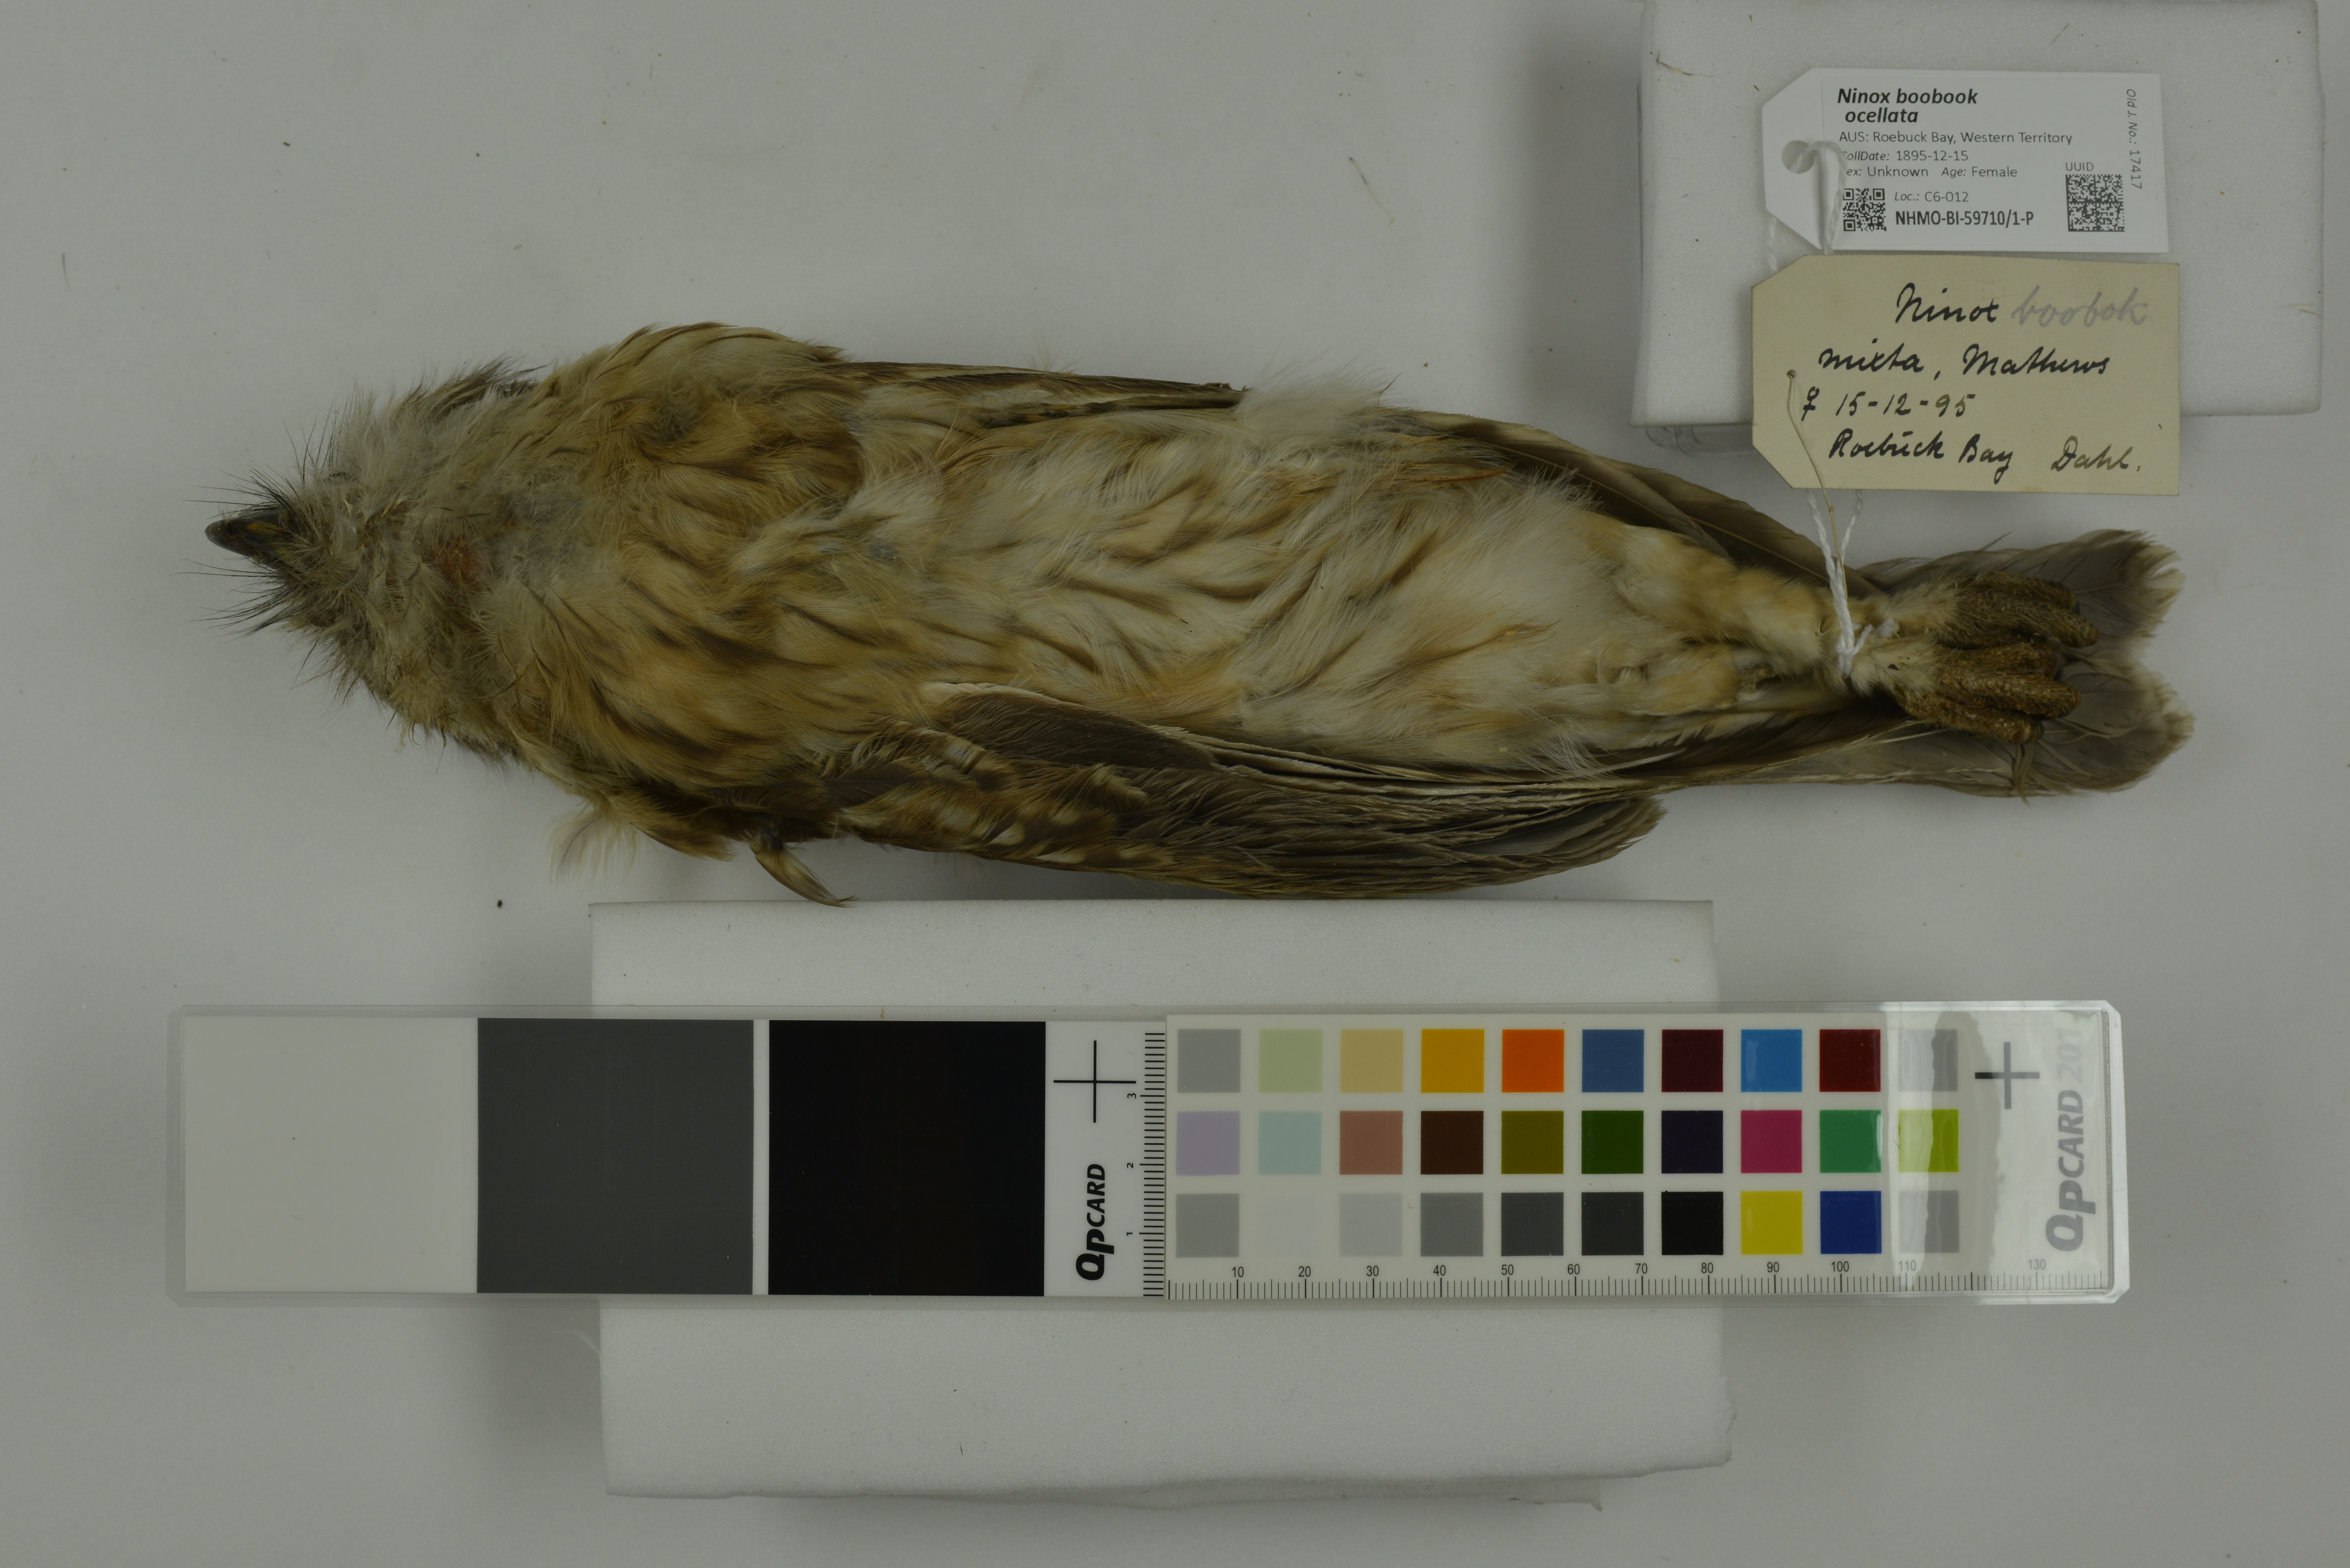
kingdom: Animalia
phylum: Chordata
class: Aves
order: Strigiformes
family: Strigidae
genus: Ninox
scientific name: Ninox boobook
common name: Southern boobook
